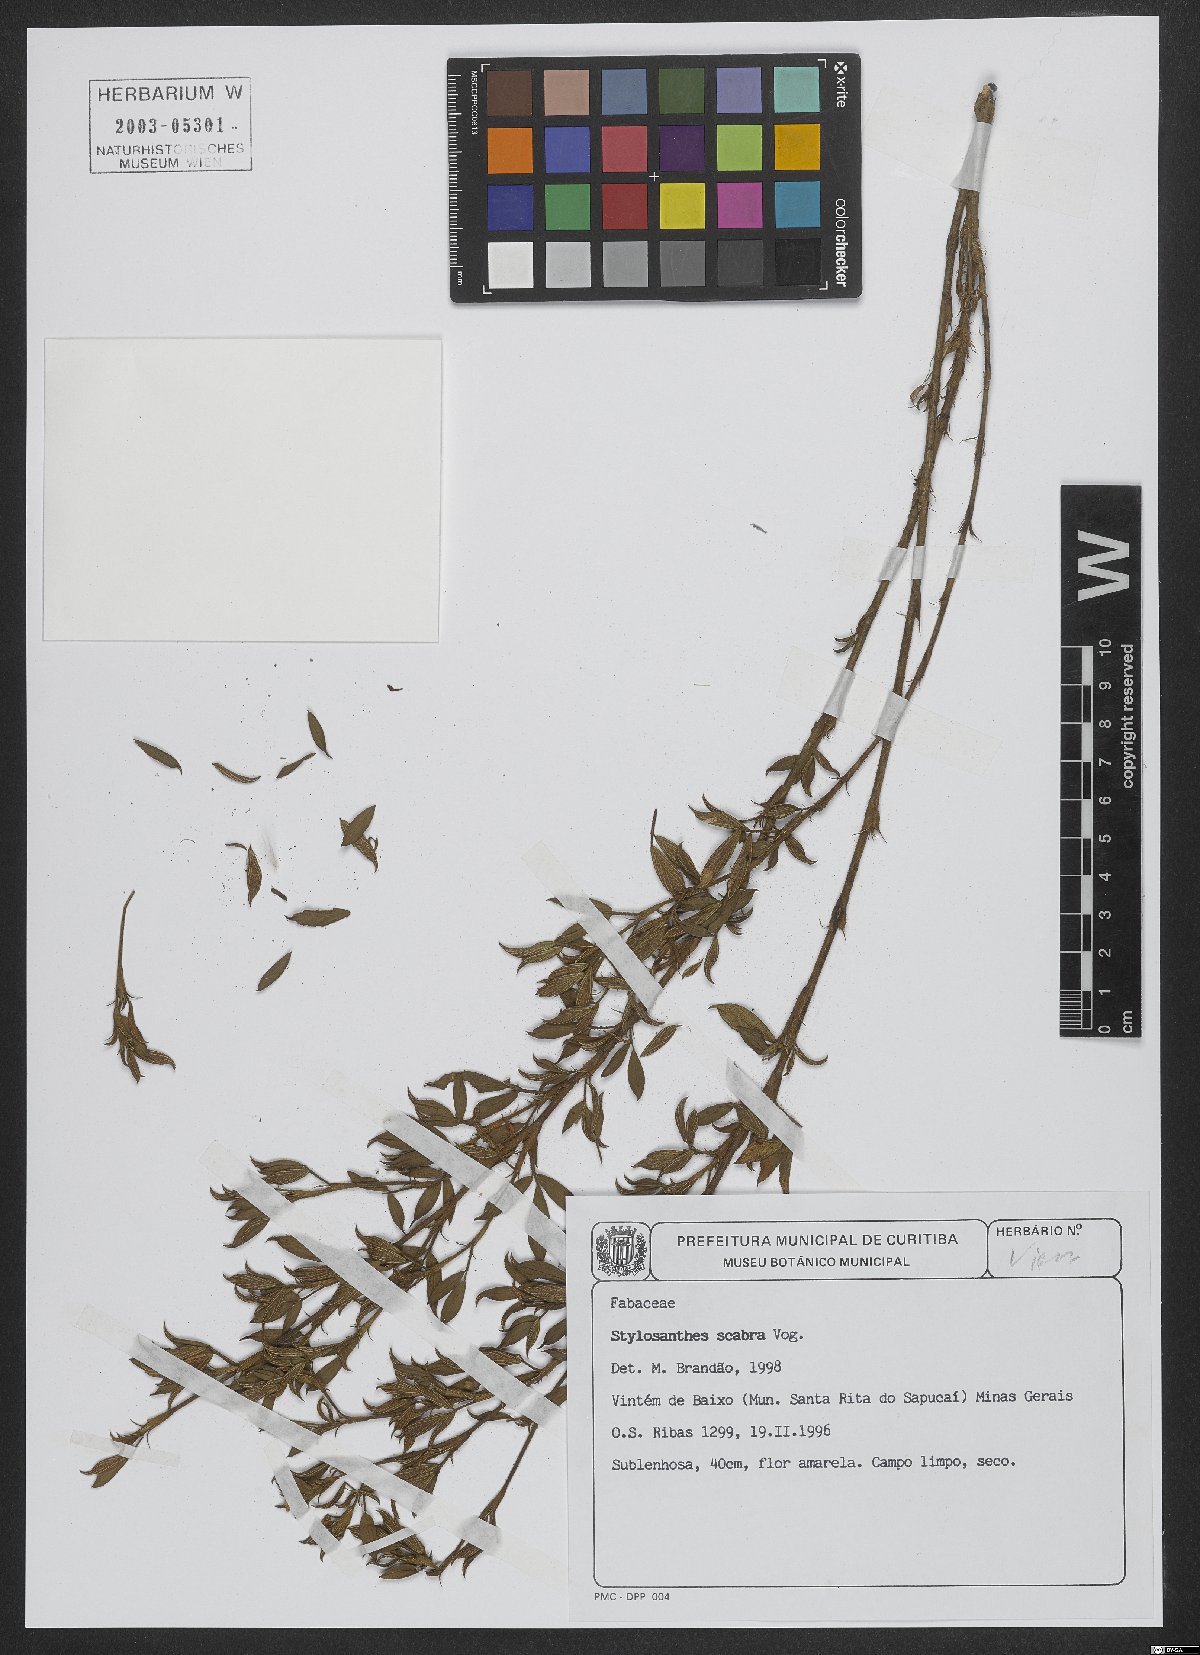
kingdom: Plantae
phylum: Tracheophyta
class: Magnoliopsida
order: Fabales
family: Fabaceae
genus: Stylosanthes
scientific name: Stylosanthes scabra
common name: Pencilflower
